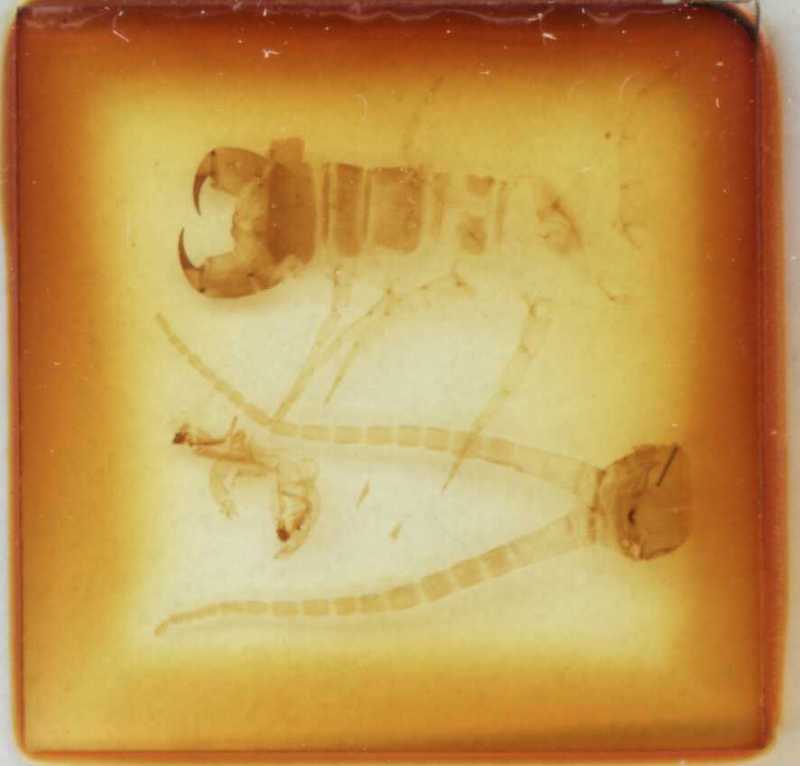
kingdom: Animalia
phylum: Arthropoda
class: Chilopoda
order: Scolopendromorpha
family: Scolopendridae
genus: Otostigmus
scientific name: Otostigmus brevidentatus
